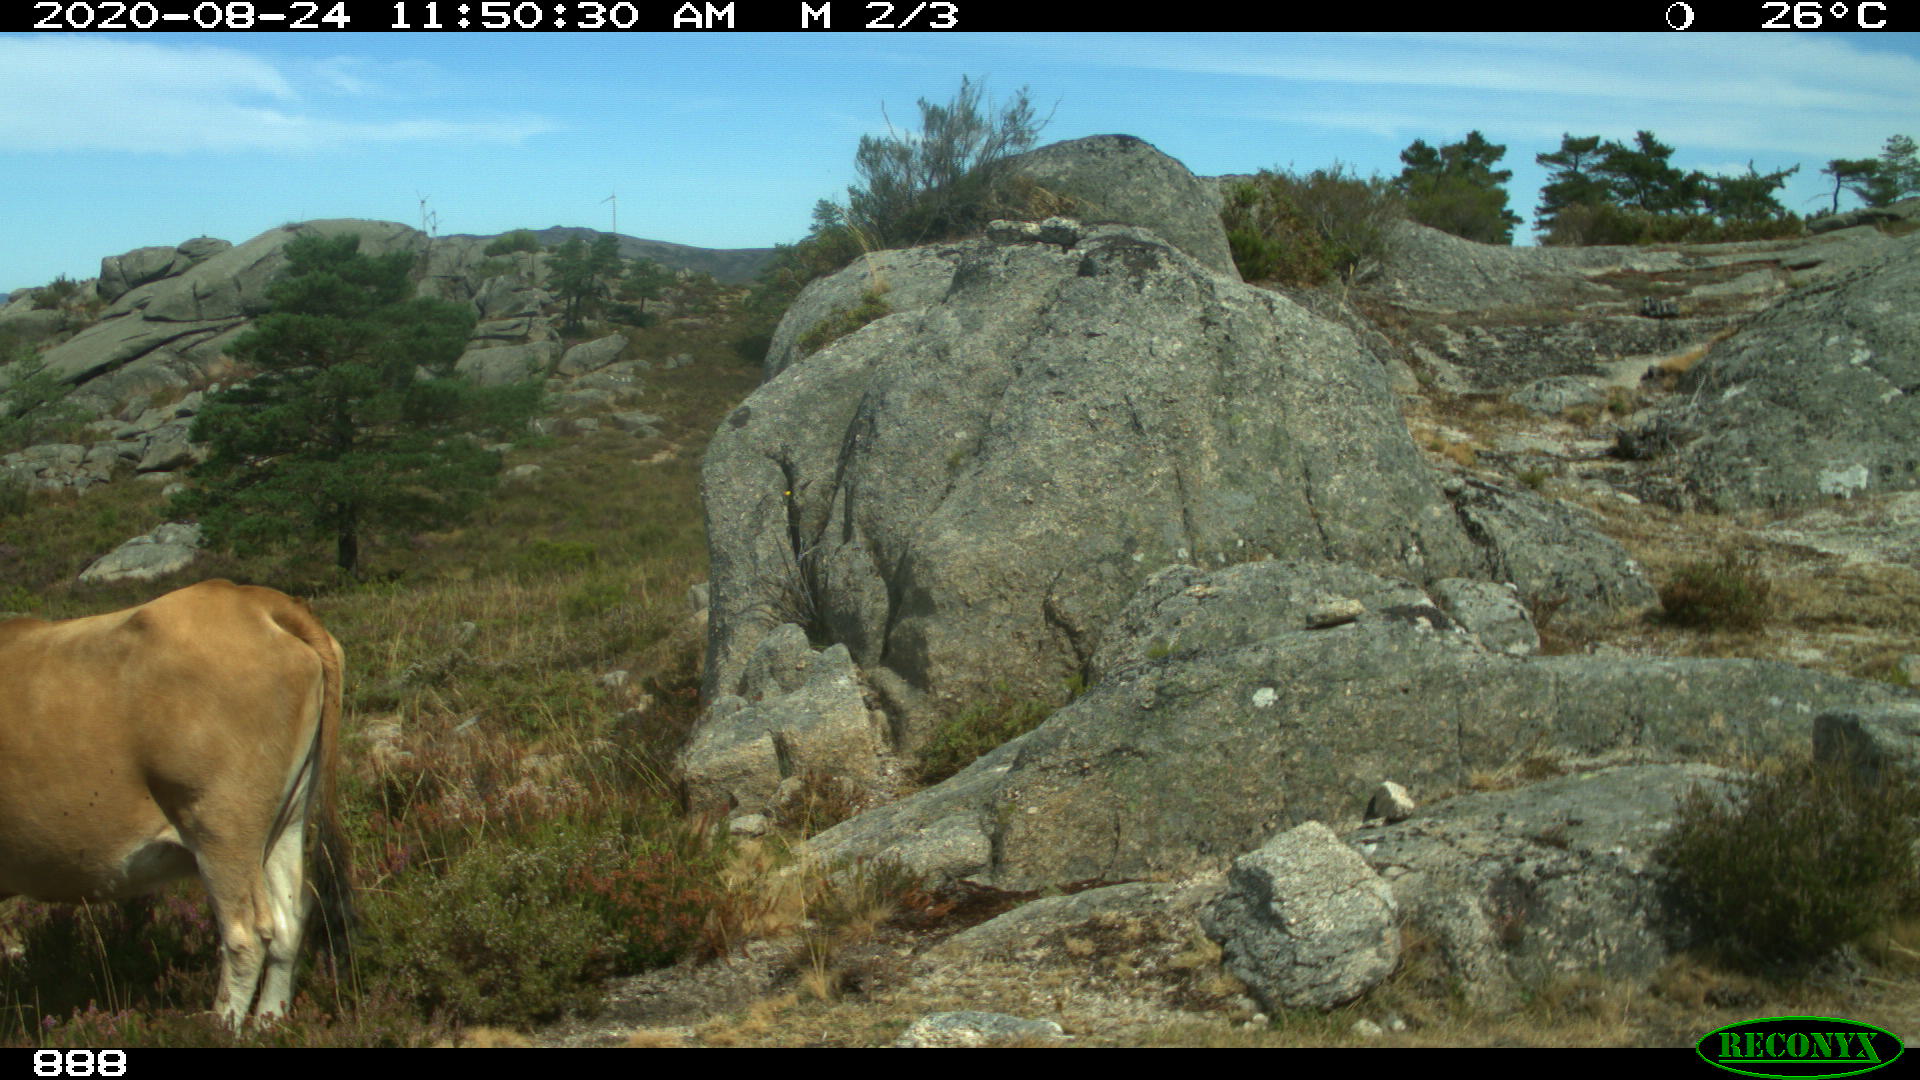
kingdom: Animalia
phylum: Chordata
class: Mammalia
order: Artiodactyla
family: Bovidae
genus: Bos
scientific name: Bos taurus
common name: Domesticated cattle
